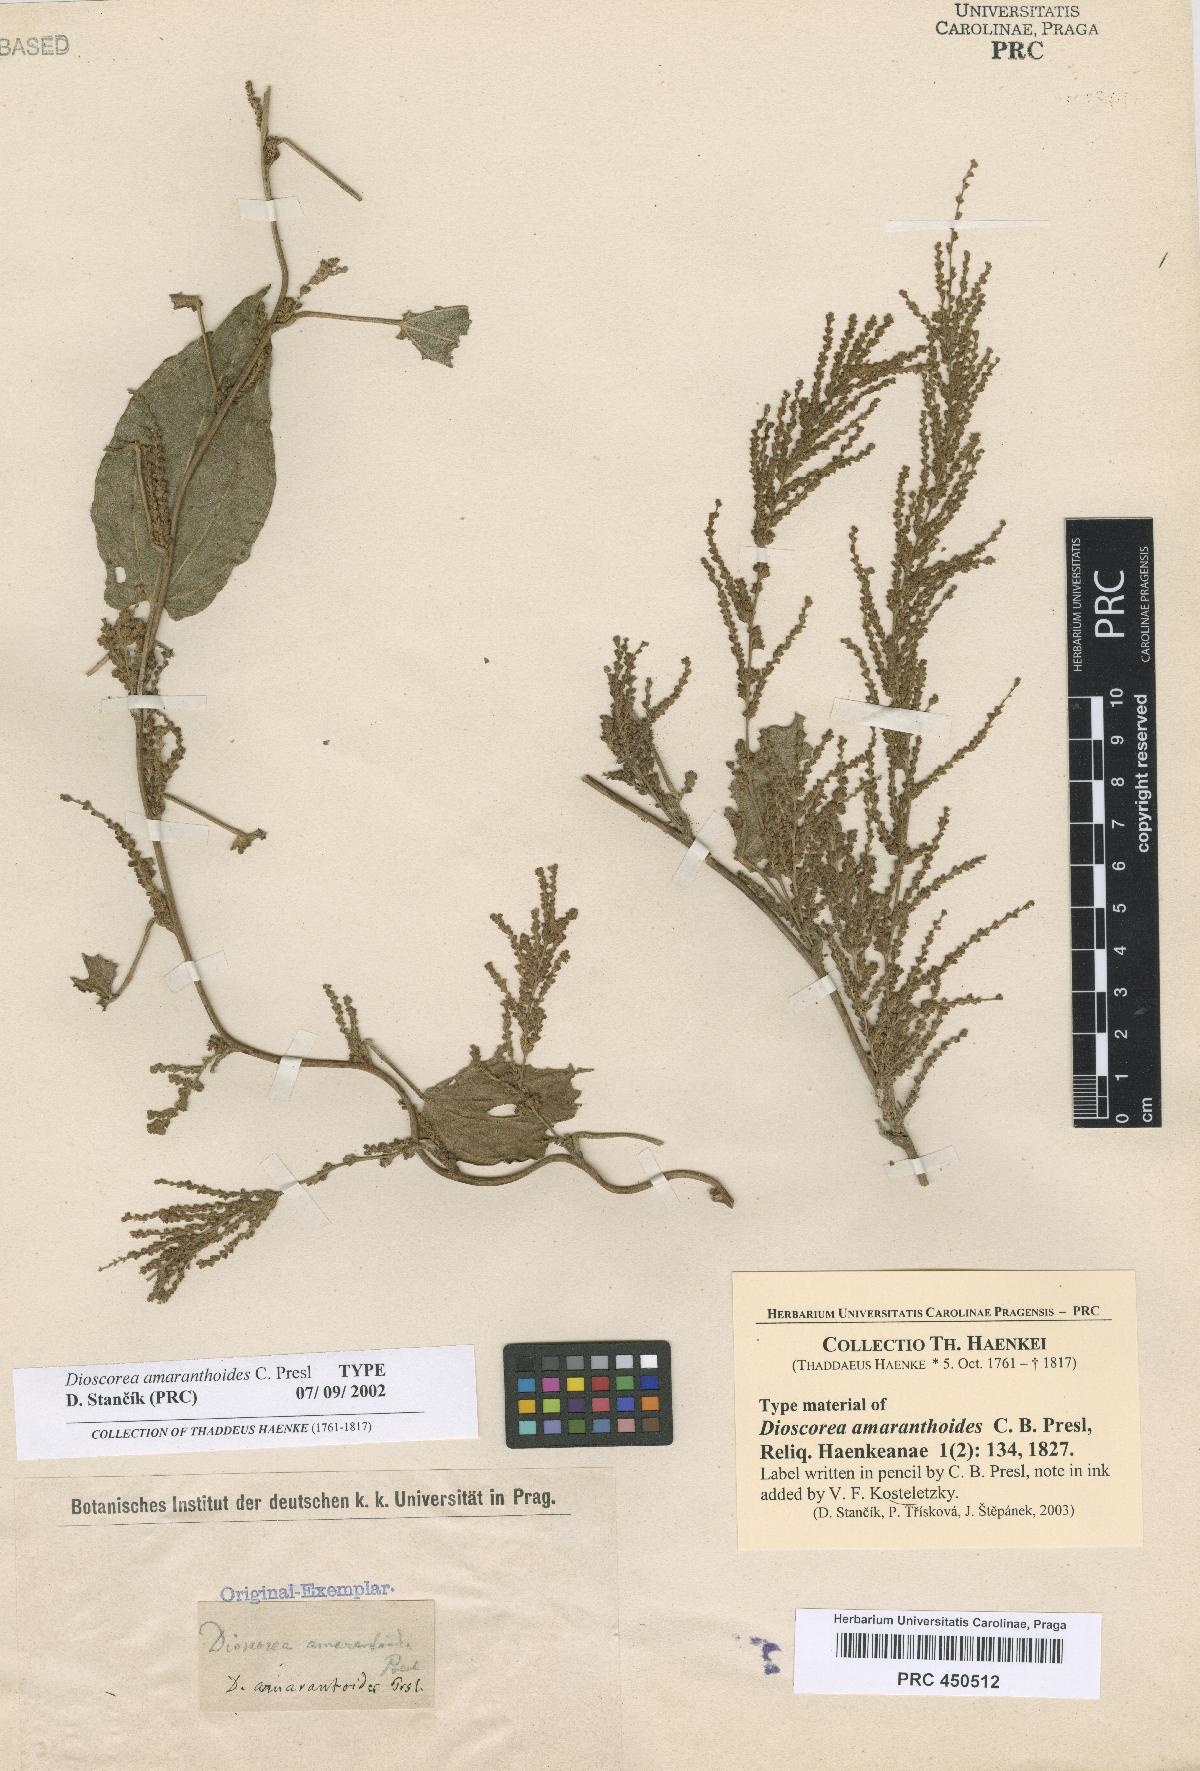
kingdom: Plantae
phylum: Tracheophyta
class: Liliopsida
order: Dioscoreales
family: Dioscoreaceae
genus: Dioscorea
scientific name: Dioscorea amaranthoides
